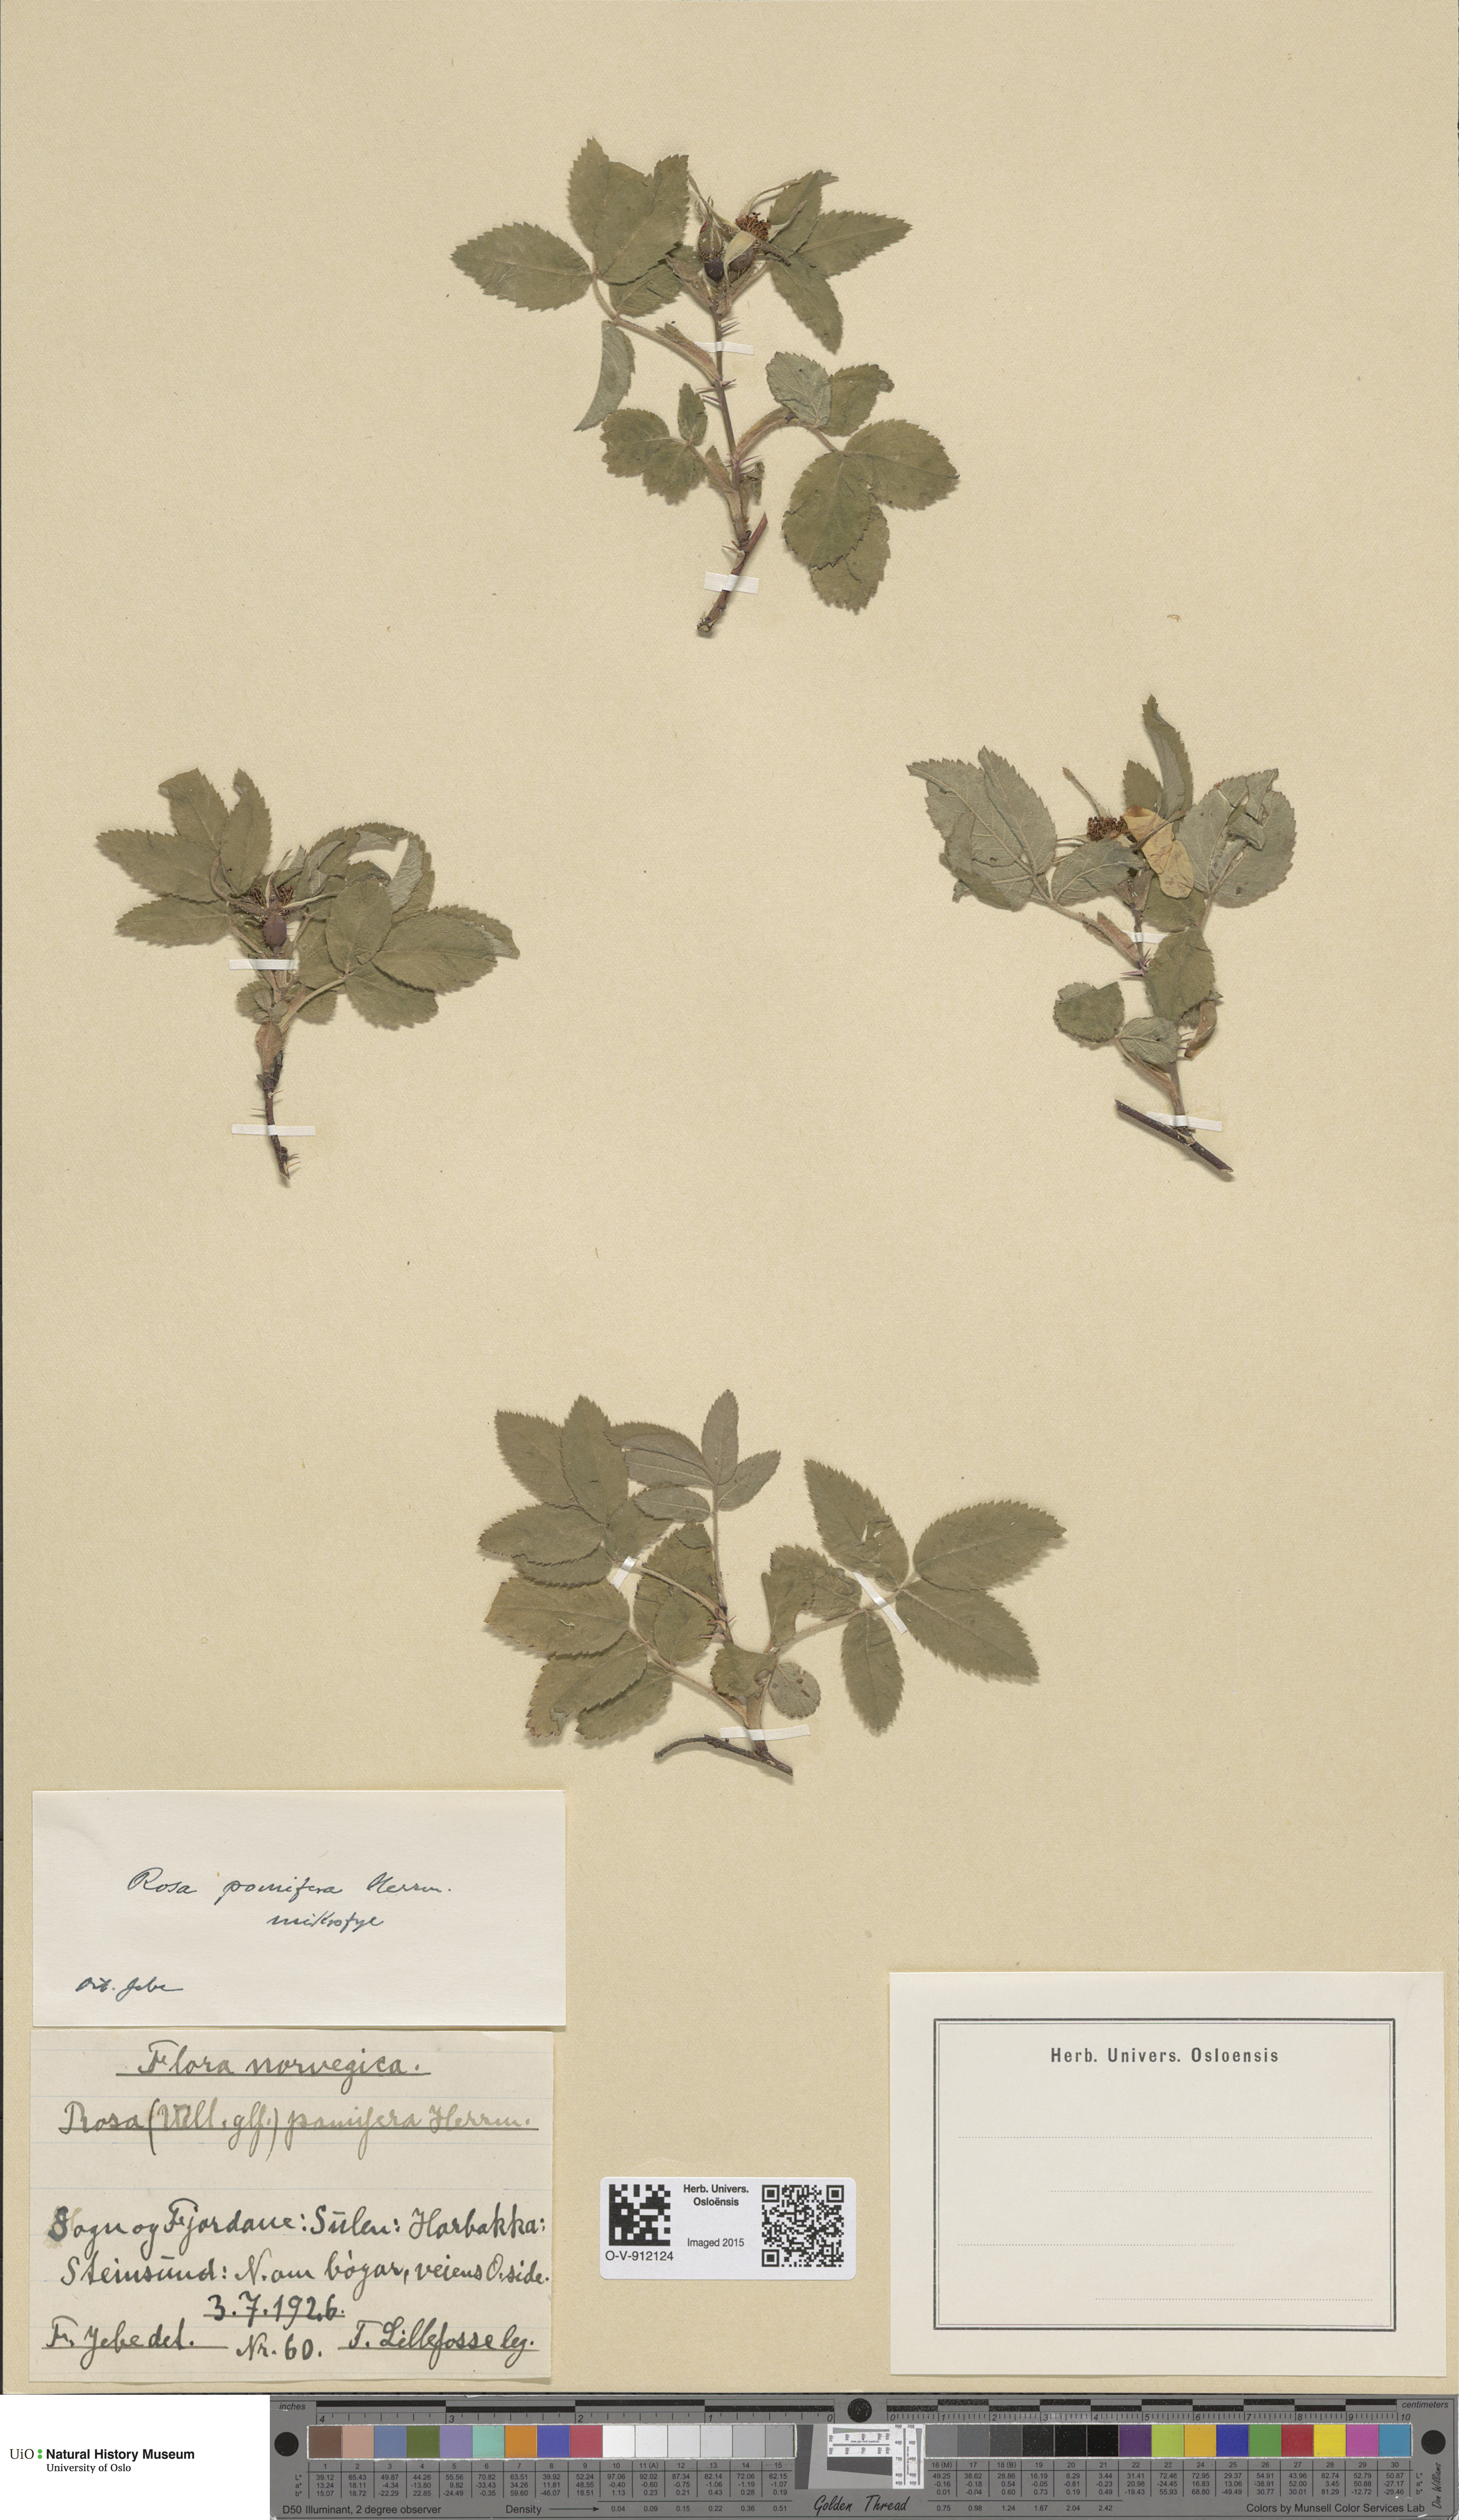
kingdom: Plantae
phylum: Tracheophyta
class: Magnoliopsida
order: Rosales
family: Rosaceae
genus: Rosa
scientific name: Rosa villosa
